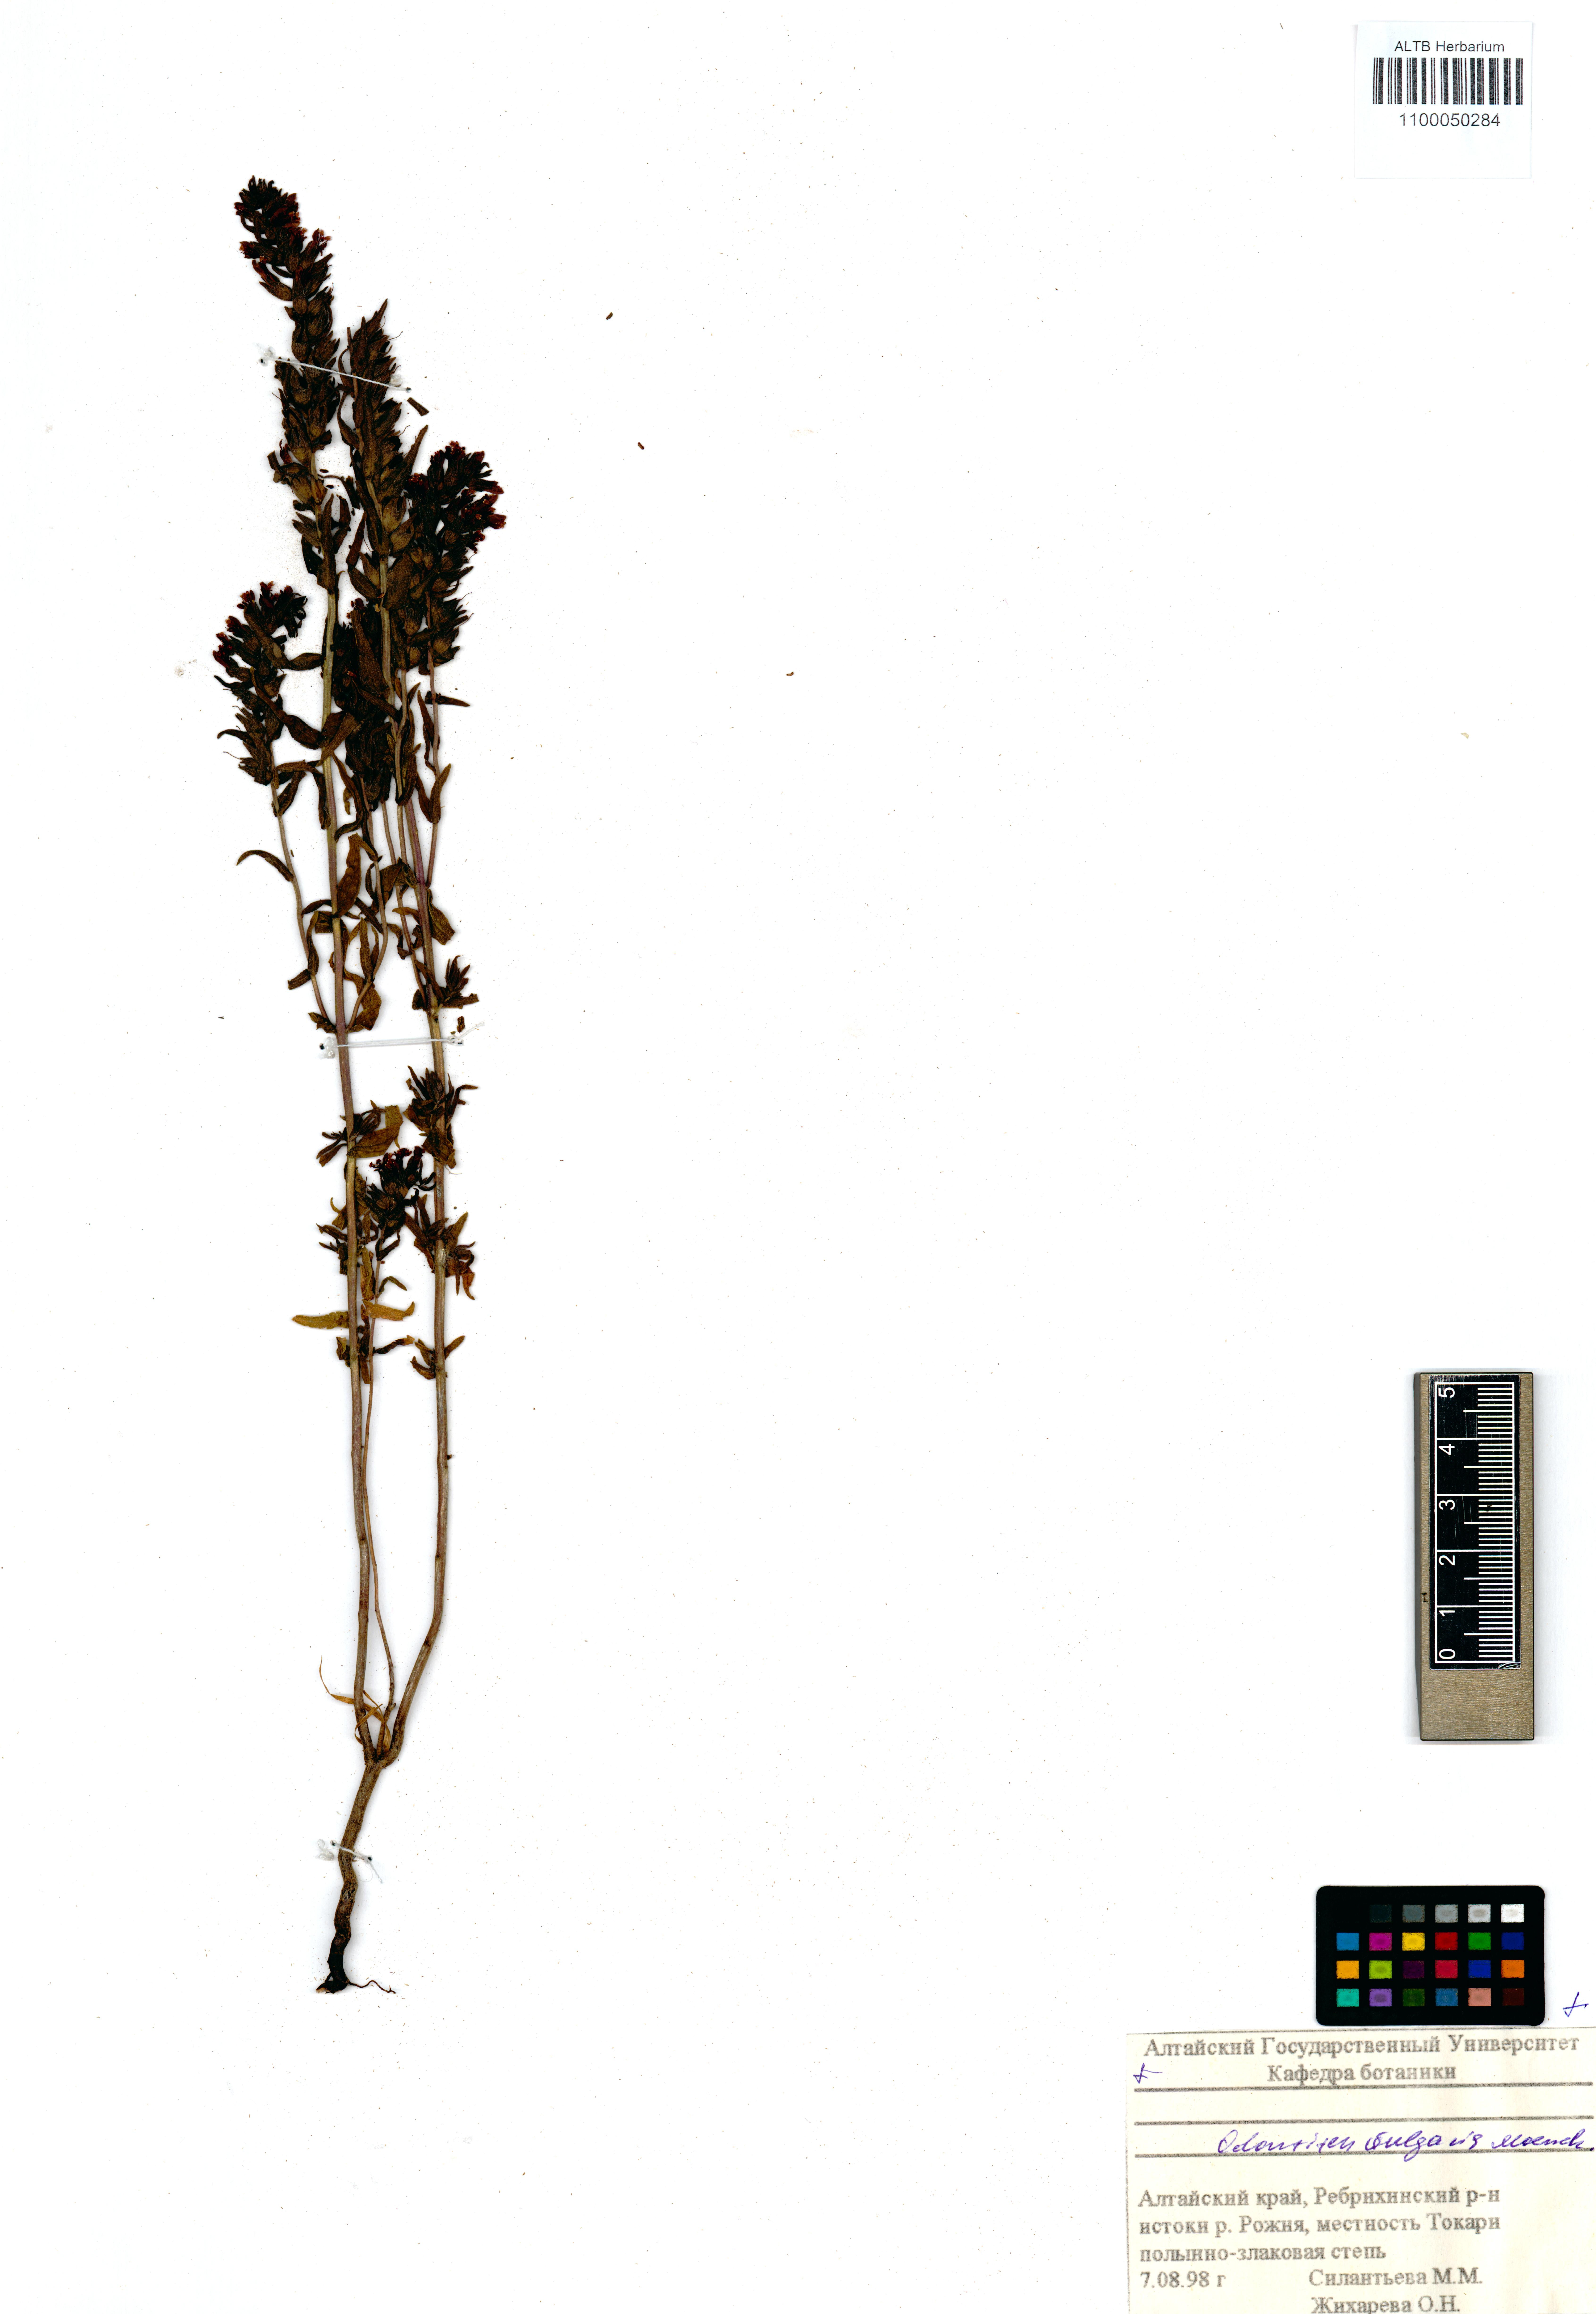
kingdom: Plantae
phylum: Tracheophyta
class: Magnoliopsida
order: Lamiales
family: Orobanchaceae
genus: Odontites
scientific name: Odontites vulgaris
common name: Broomrape
